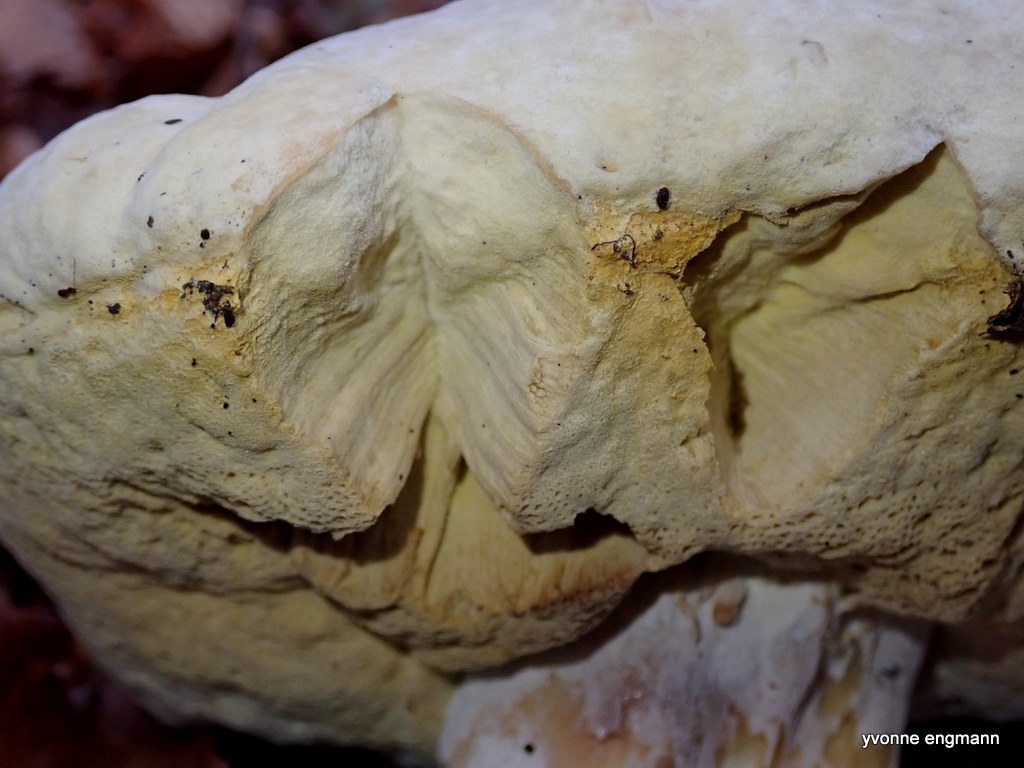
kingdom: Fungi
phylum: Ascomycota
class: Sordariomycetes
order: Hypocreales
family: Hypocreaceae
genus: Hypomyces
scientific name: Hypomyces
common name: snylteskorpe
